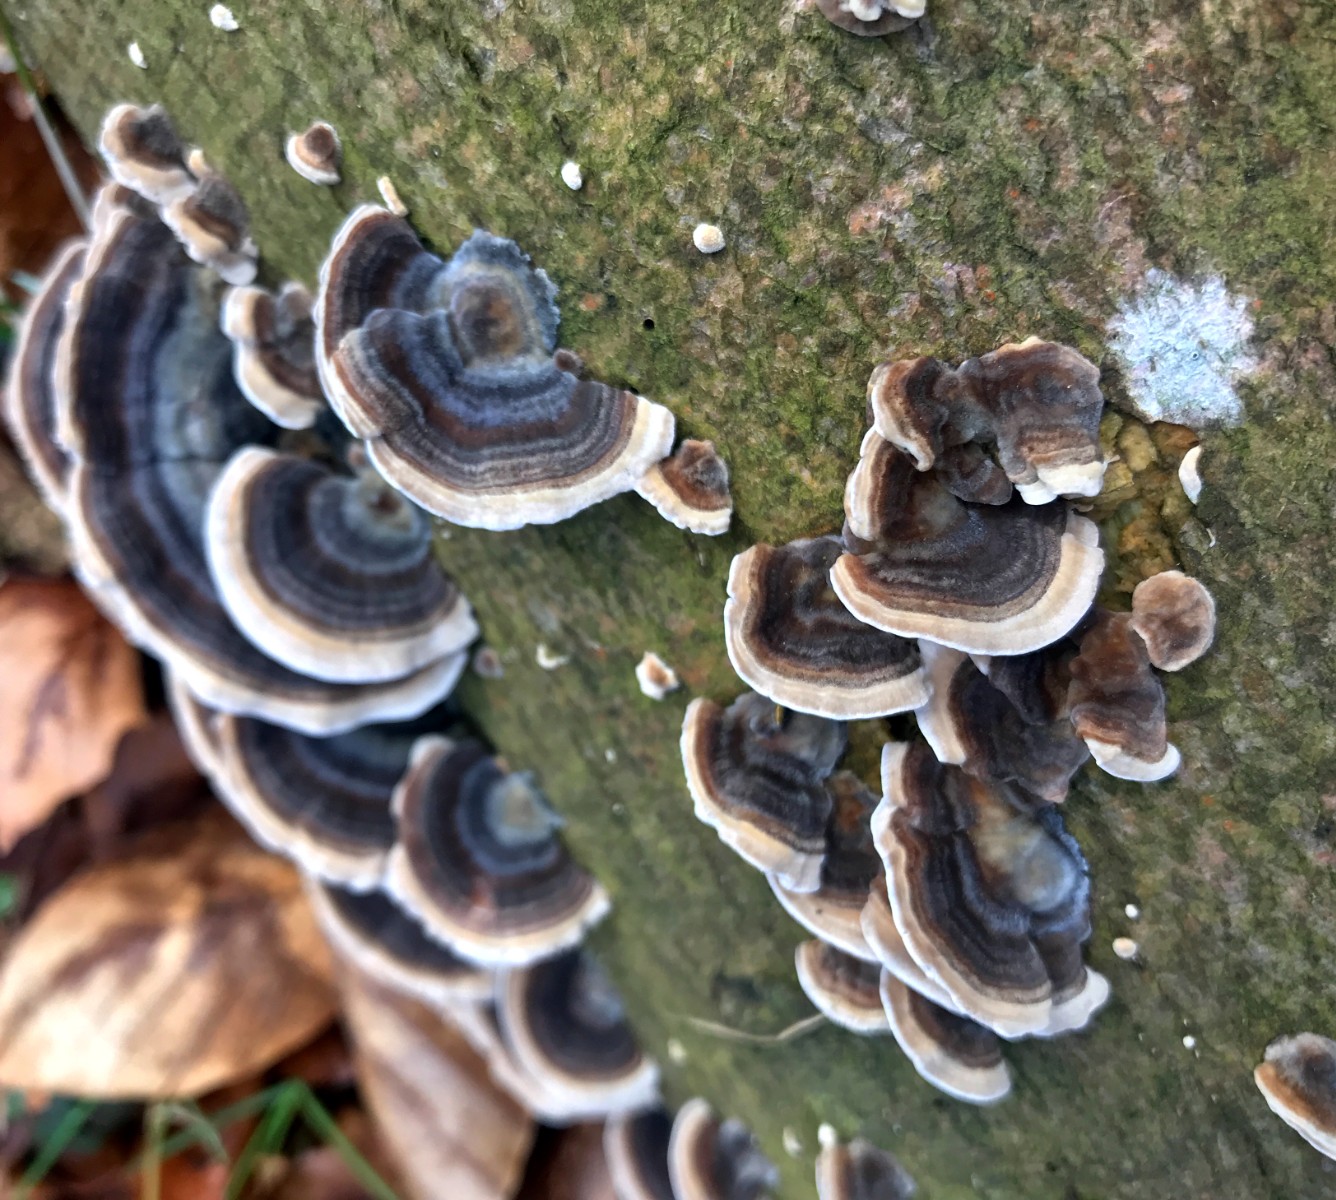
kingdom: Fungi
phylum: Basidiomycota
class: Agaricomycetes
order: Polyporales
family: Polyporaceae
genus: Trametes
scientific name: Trametes versicolor
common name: broget læderporesvamp
